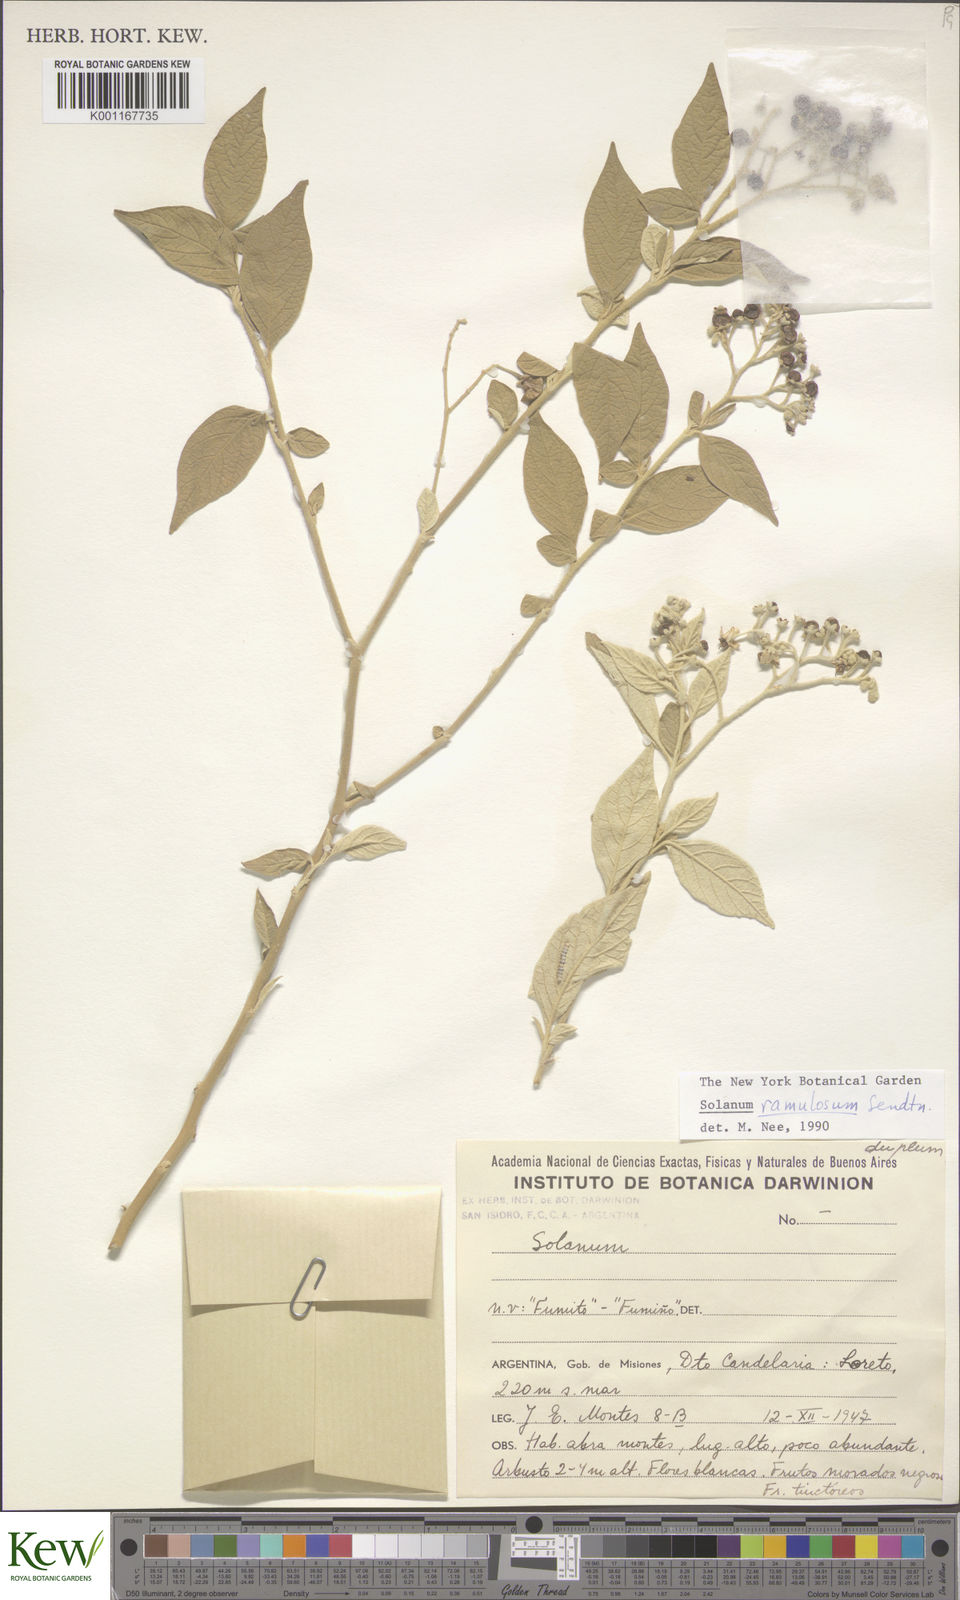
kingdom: Plantae
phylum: Tracheophyta
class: Magnoliopsida
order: Solanales
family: Solanaceae
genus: Solanum
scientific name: Solanum ramulosum
